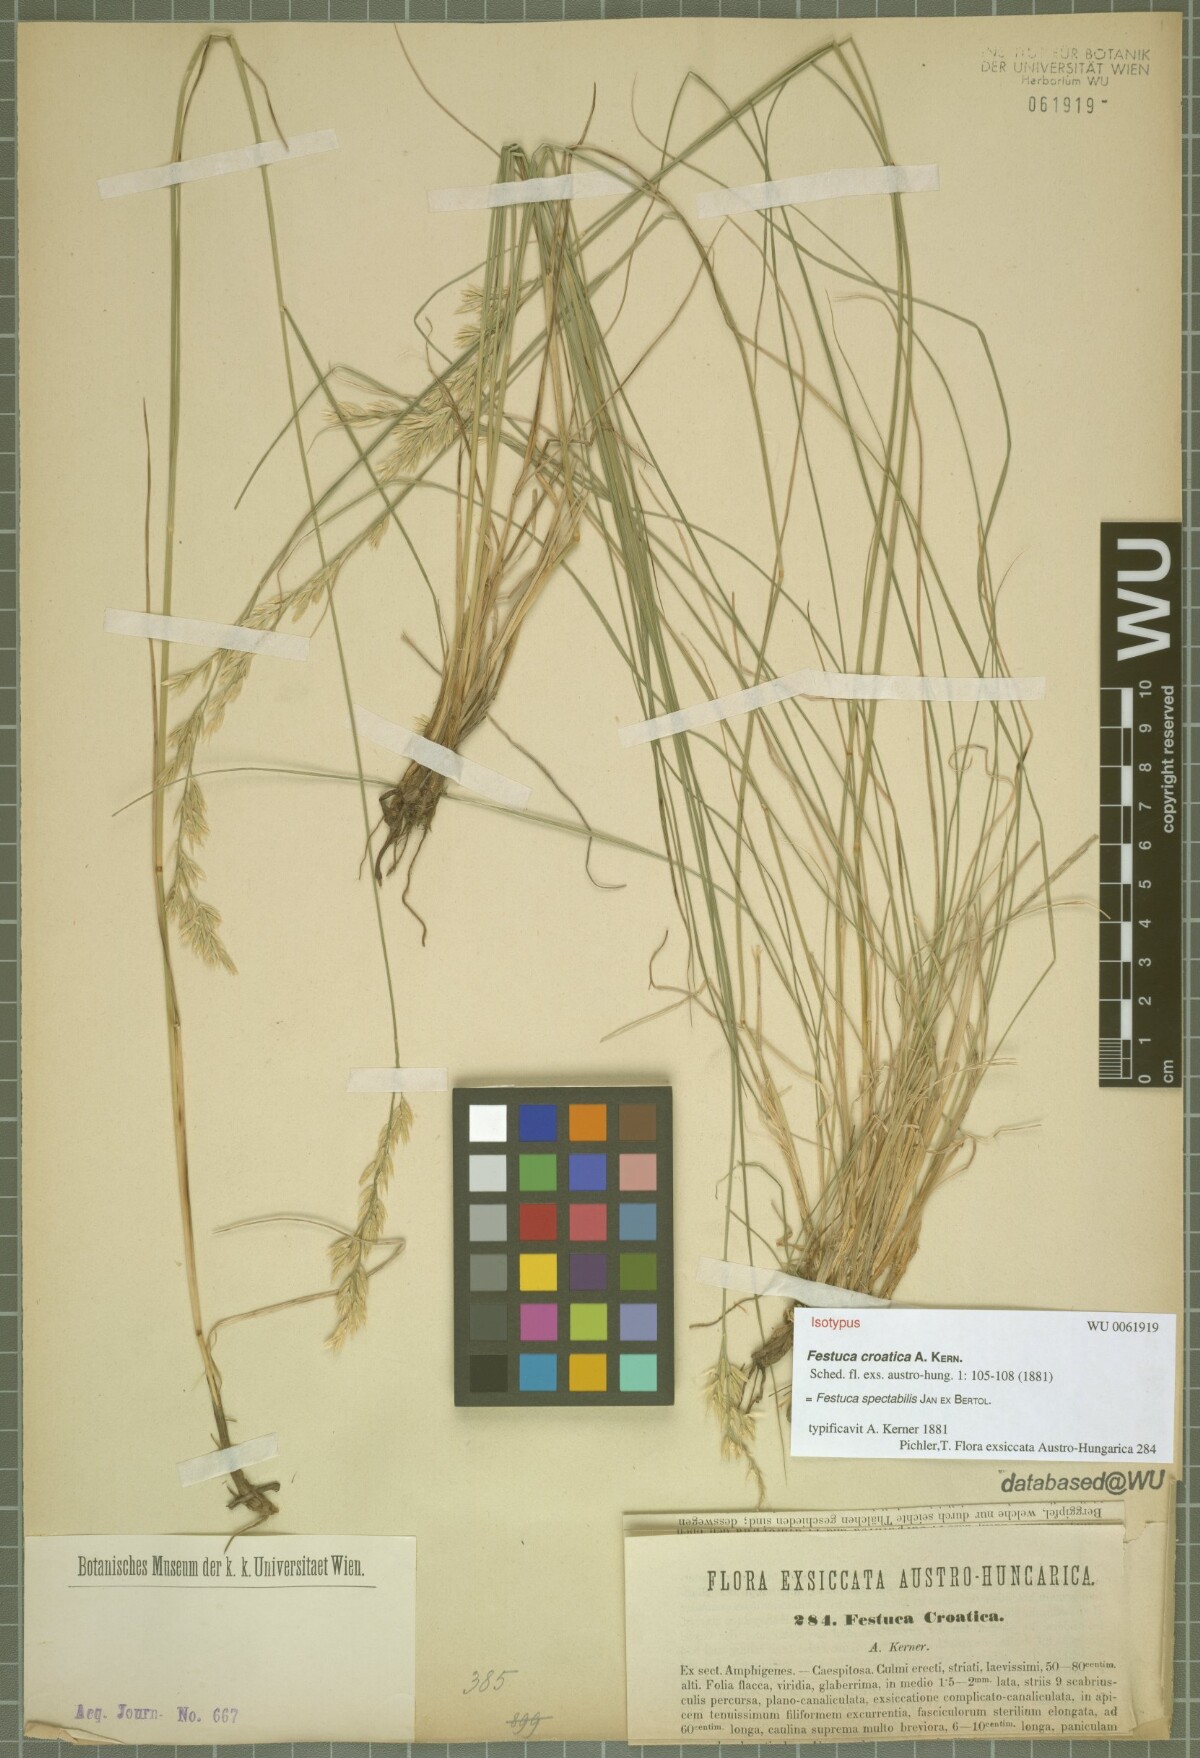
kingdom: Plantae
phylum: Tracheophyta
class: Liliopsida
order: Poales
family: Poaceae
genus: Festuca
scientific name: Festuca spectabilis
